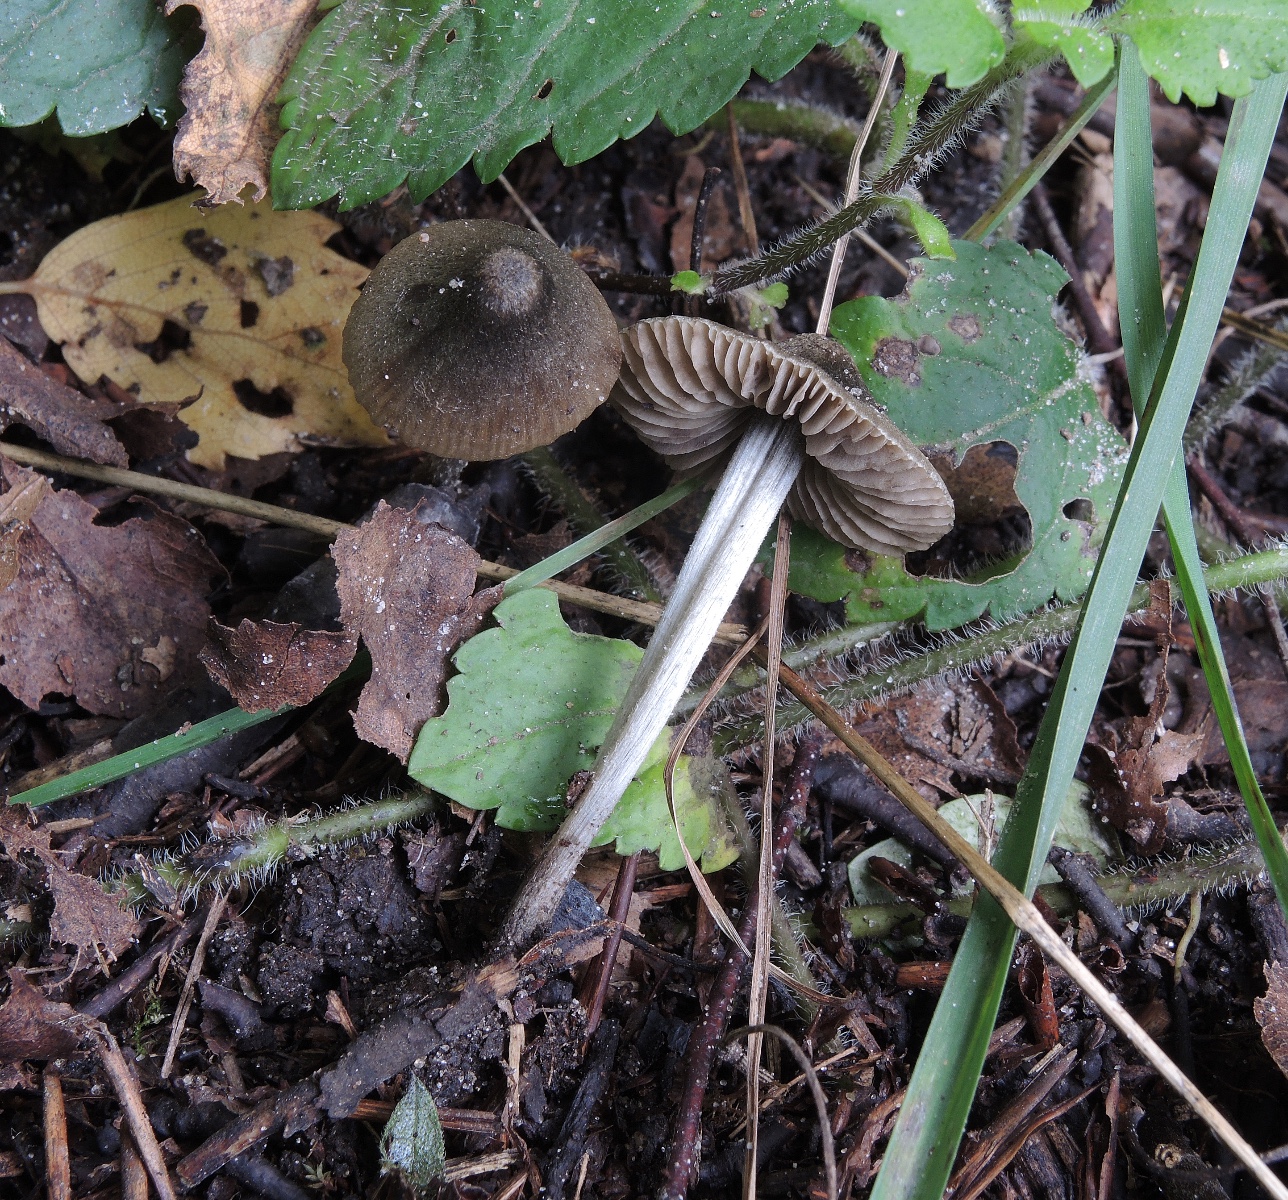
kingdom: Fungi
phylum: Basidiomycota
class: Agaricomycetes
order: Agaricales
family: Entolomataceae
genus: Entoloma
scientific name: Entoloma araneosum
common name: spindelvævs-rødblad
